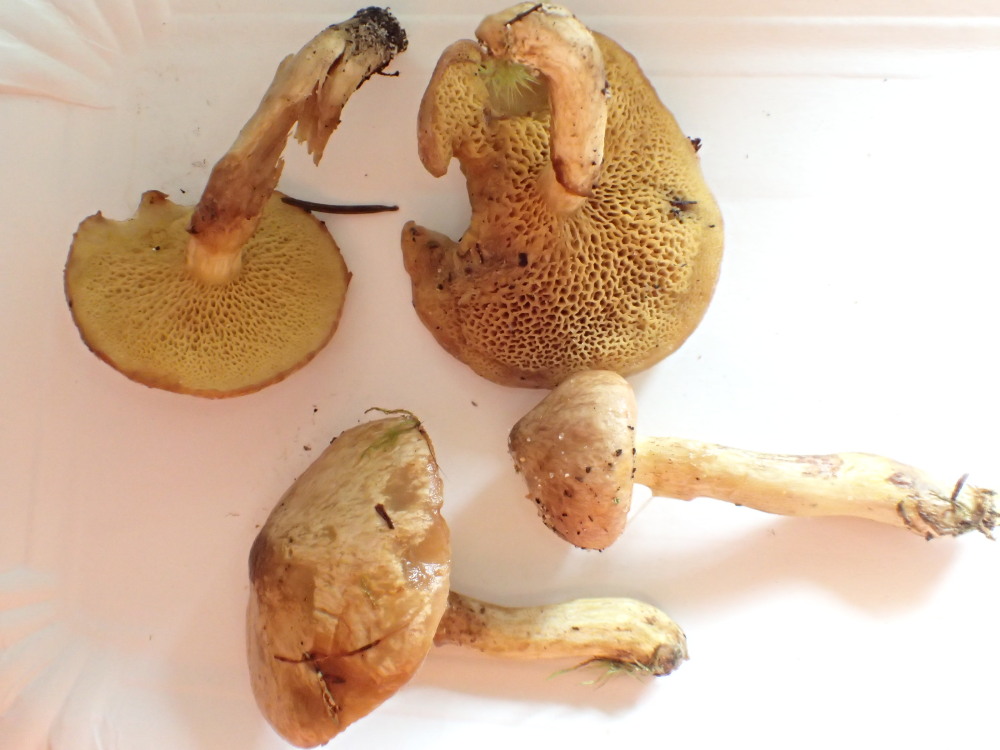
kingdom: Fungi
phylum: Basidiomycota
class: Agaricomycetes
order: Boletales
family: Suillaceae
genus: Suillus
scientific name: Suillus flavidus
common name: mose-slimrørhat
